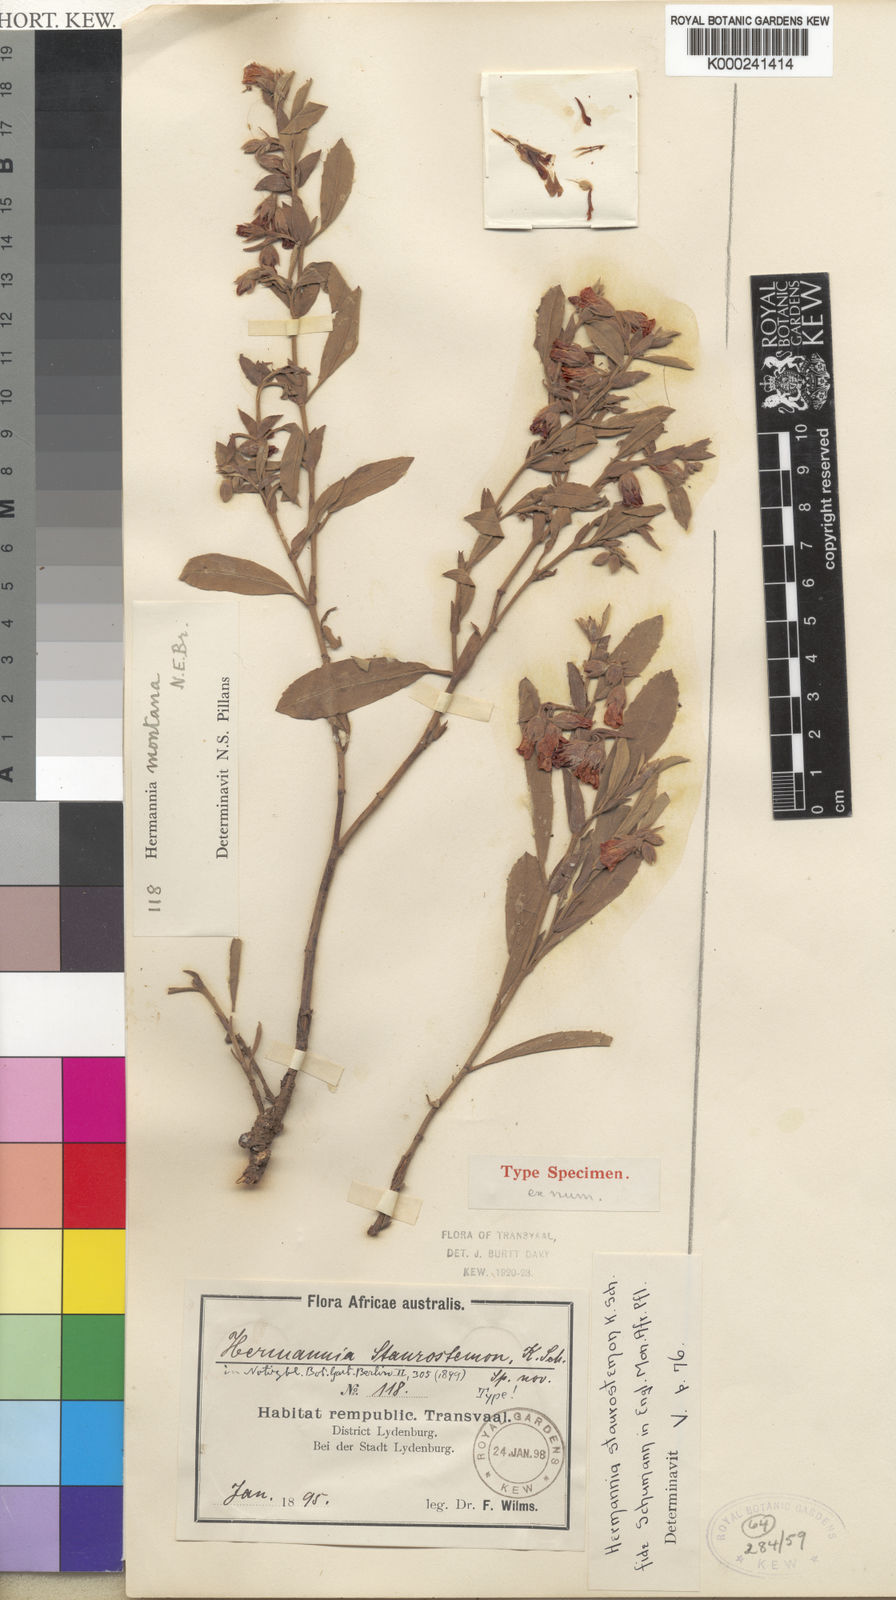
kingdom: Plantae
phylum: Tracheophyta
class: Magnoliopsida
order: Malvales
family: Malvaceae
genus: Hermannia
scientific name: Hermannia montana
